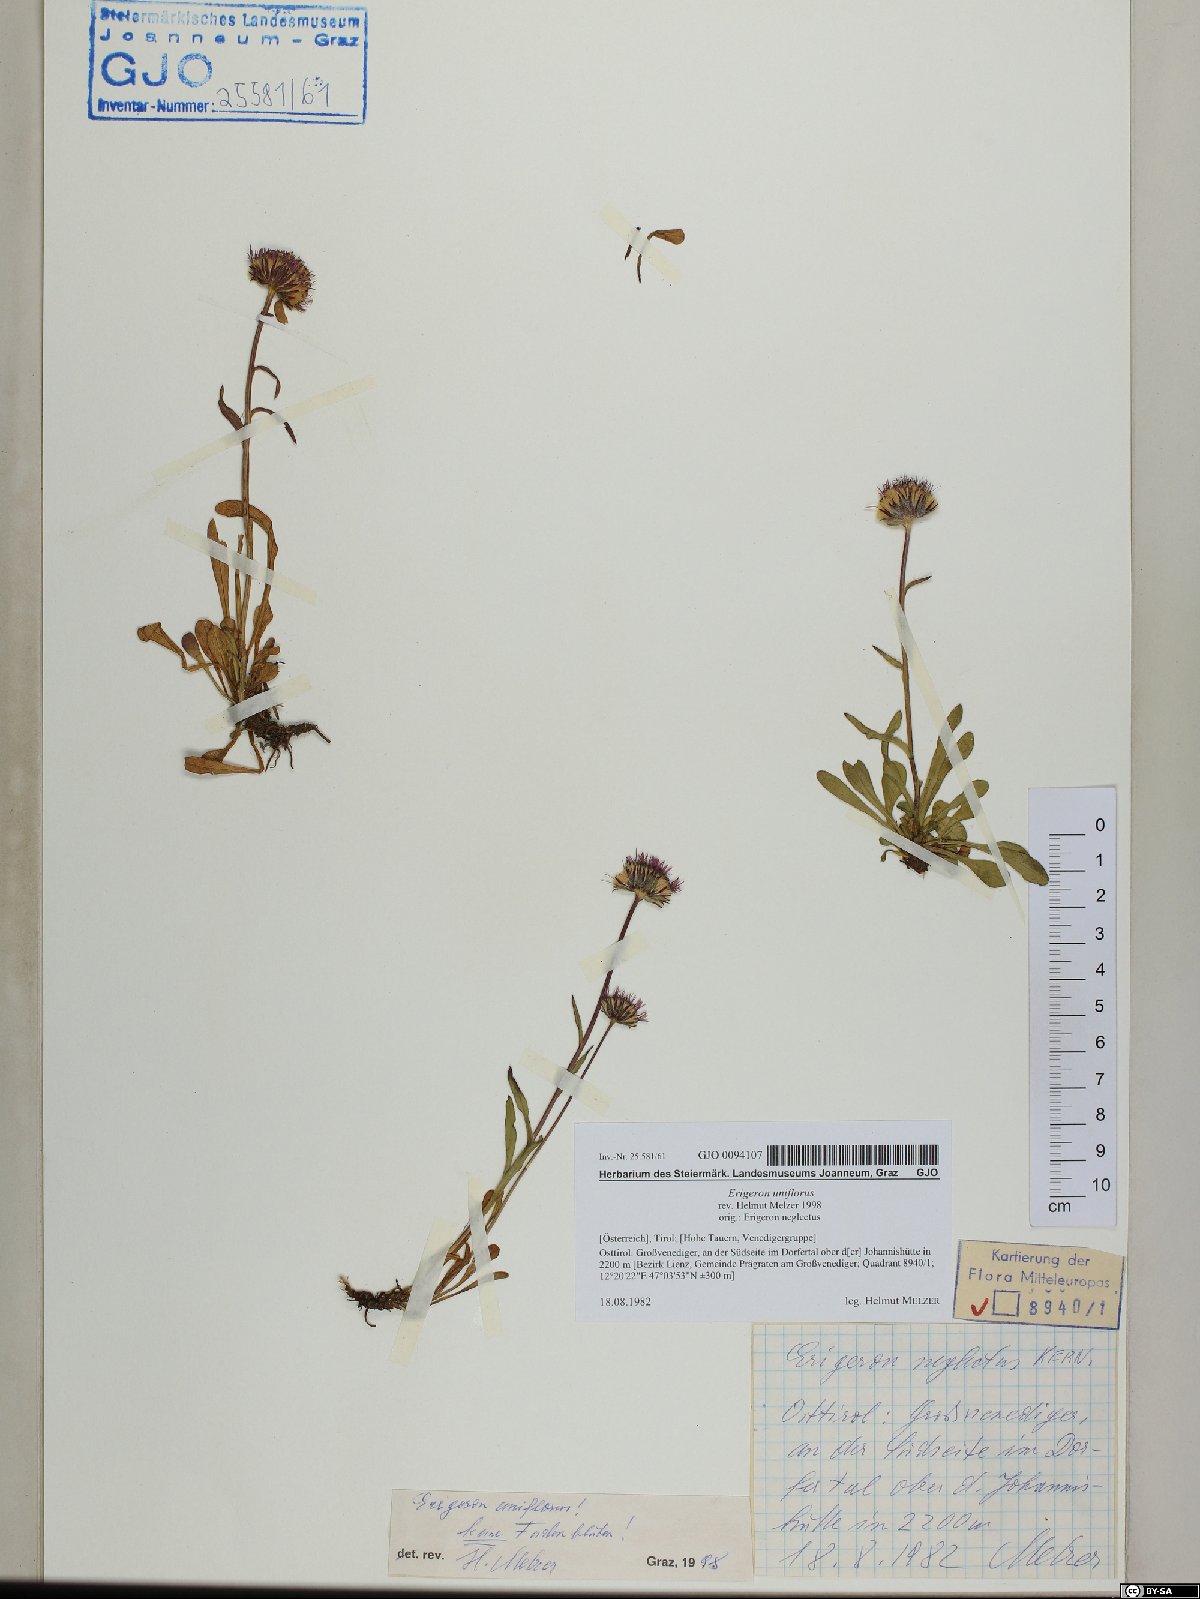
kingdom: Plantae
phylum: Tracheophyta
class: Magnoliopsida
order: Asterales
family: Asteraceae
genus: Erigeron
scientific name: Erigeron uniflorus
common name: Northern daisy
